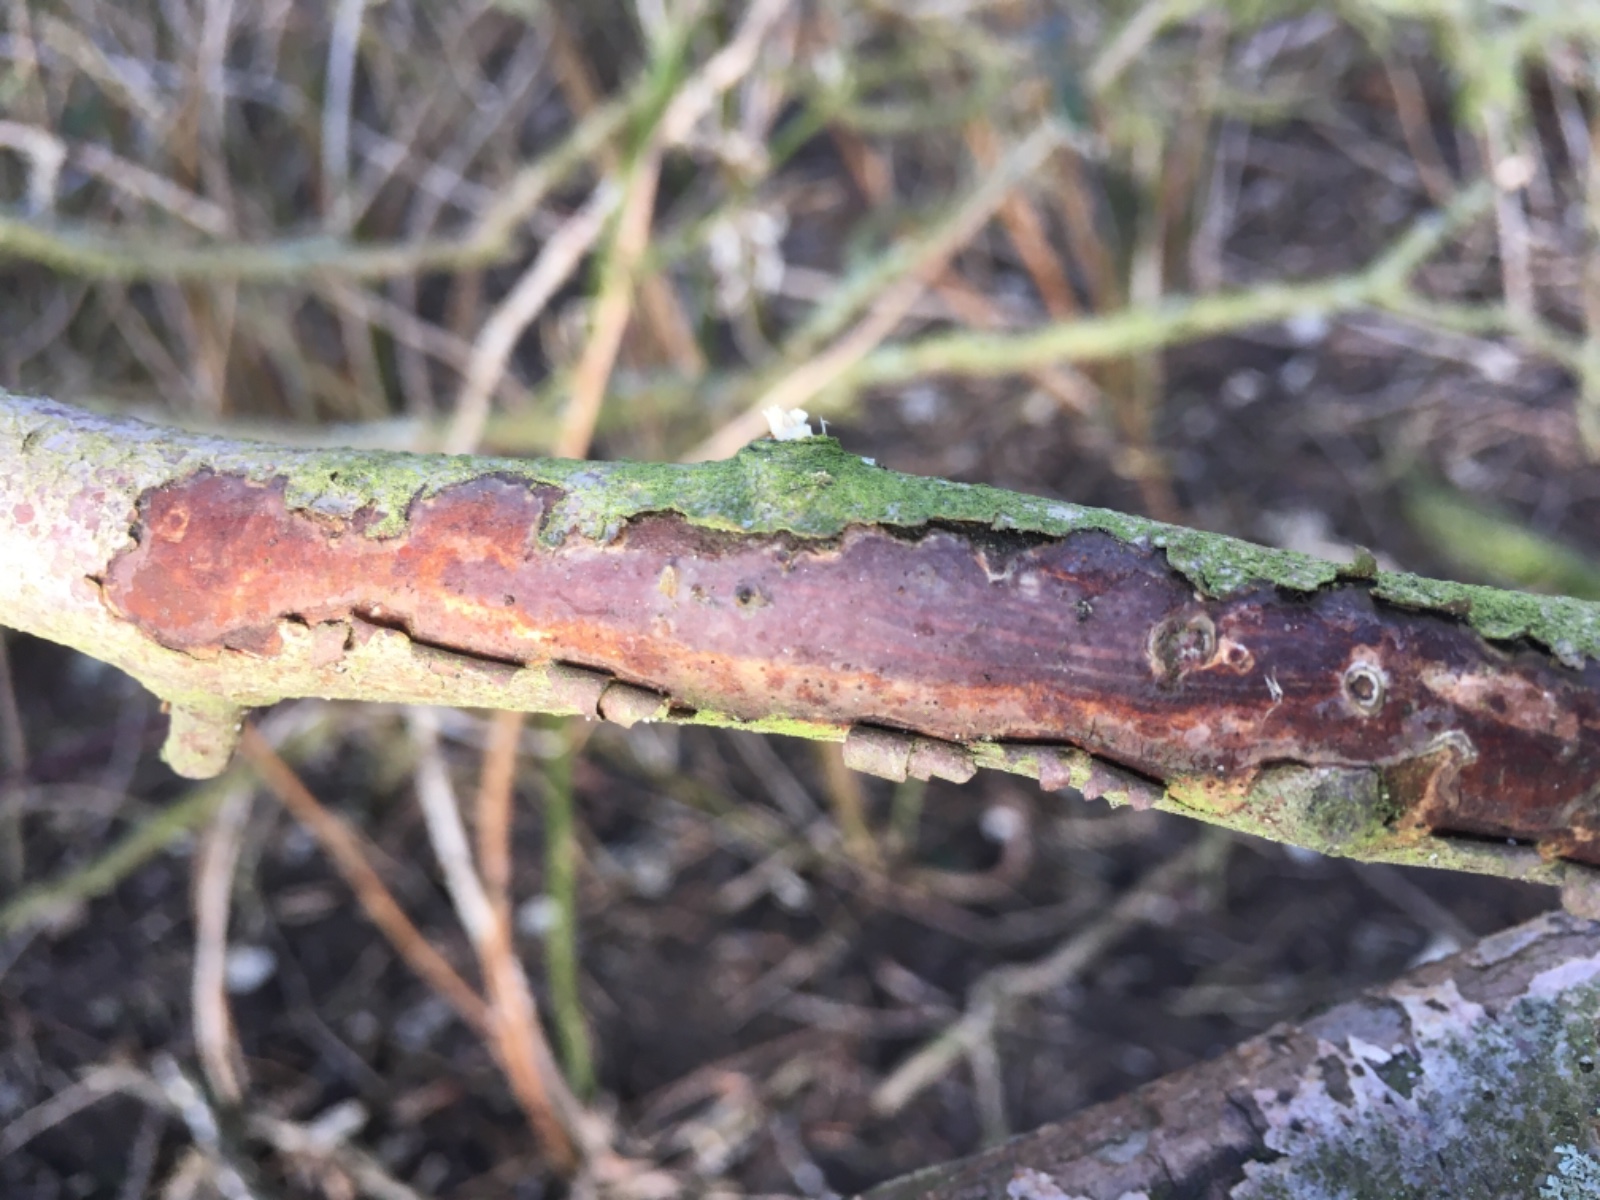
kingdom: Fungi
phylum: Basidiomycota
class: Agaricomycetes
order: Corticiales
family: Vuilleminiaceae
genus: Vuilleminia
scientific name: Vuilleminia
